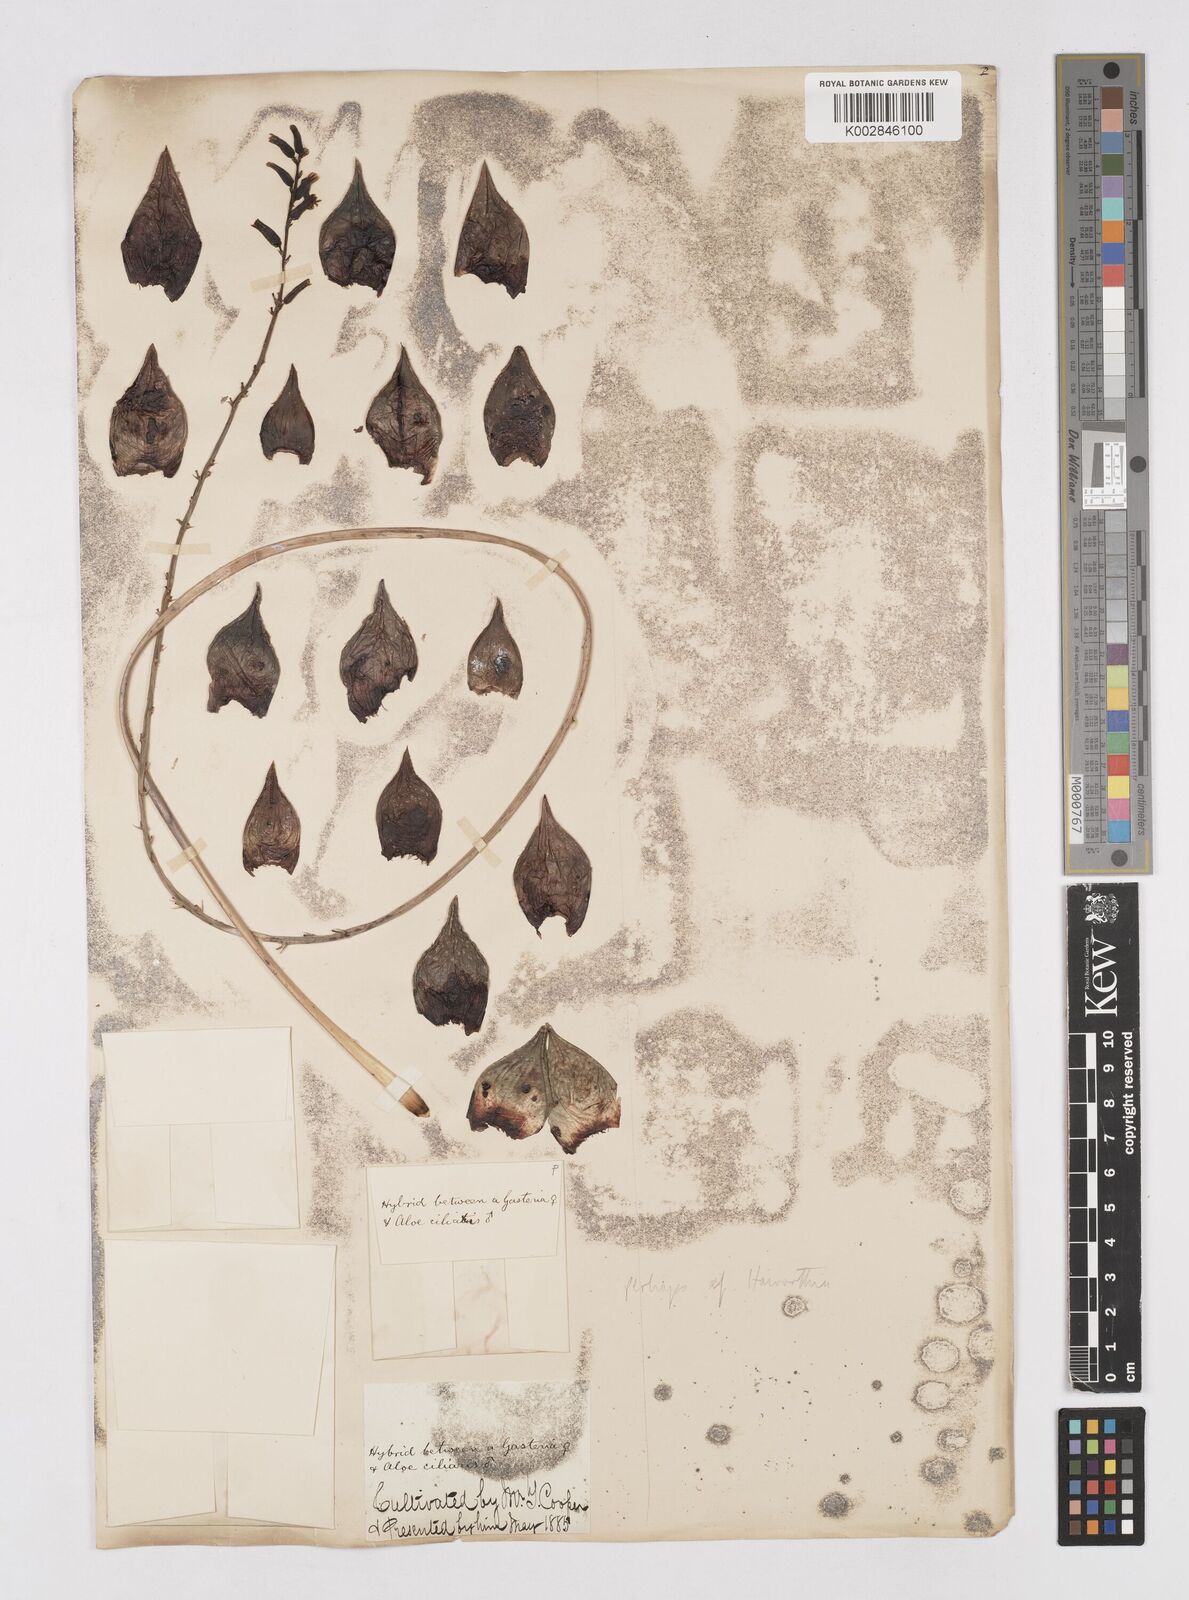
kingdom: Plantae
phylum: Tracheophyta
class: Liliopsida
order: Asparagales
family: Asphodelaceae
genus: Gasteria
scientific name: Gasteria
